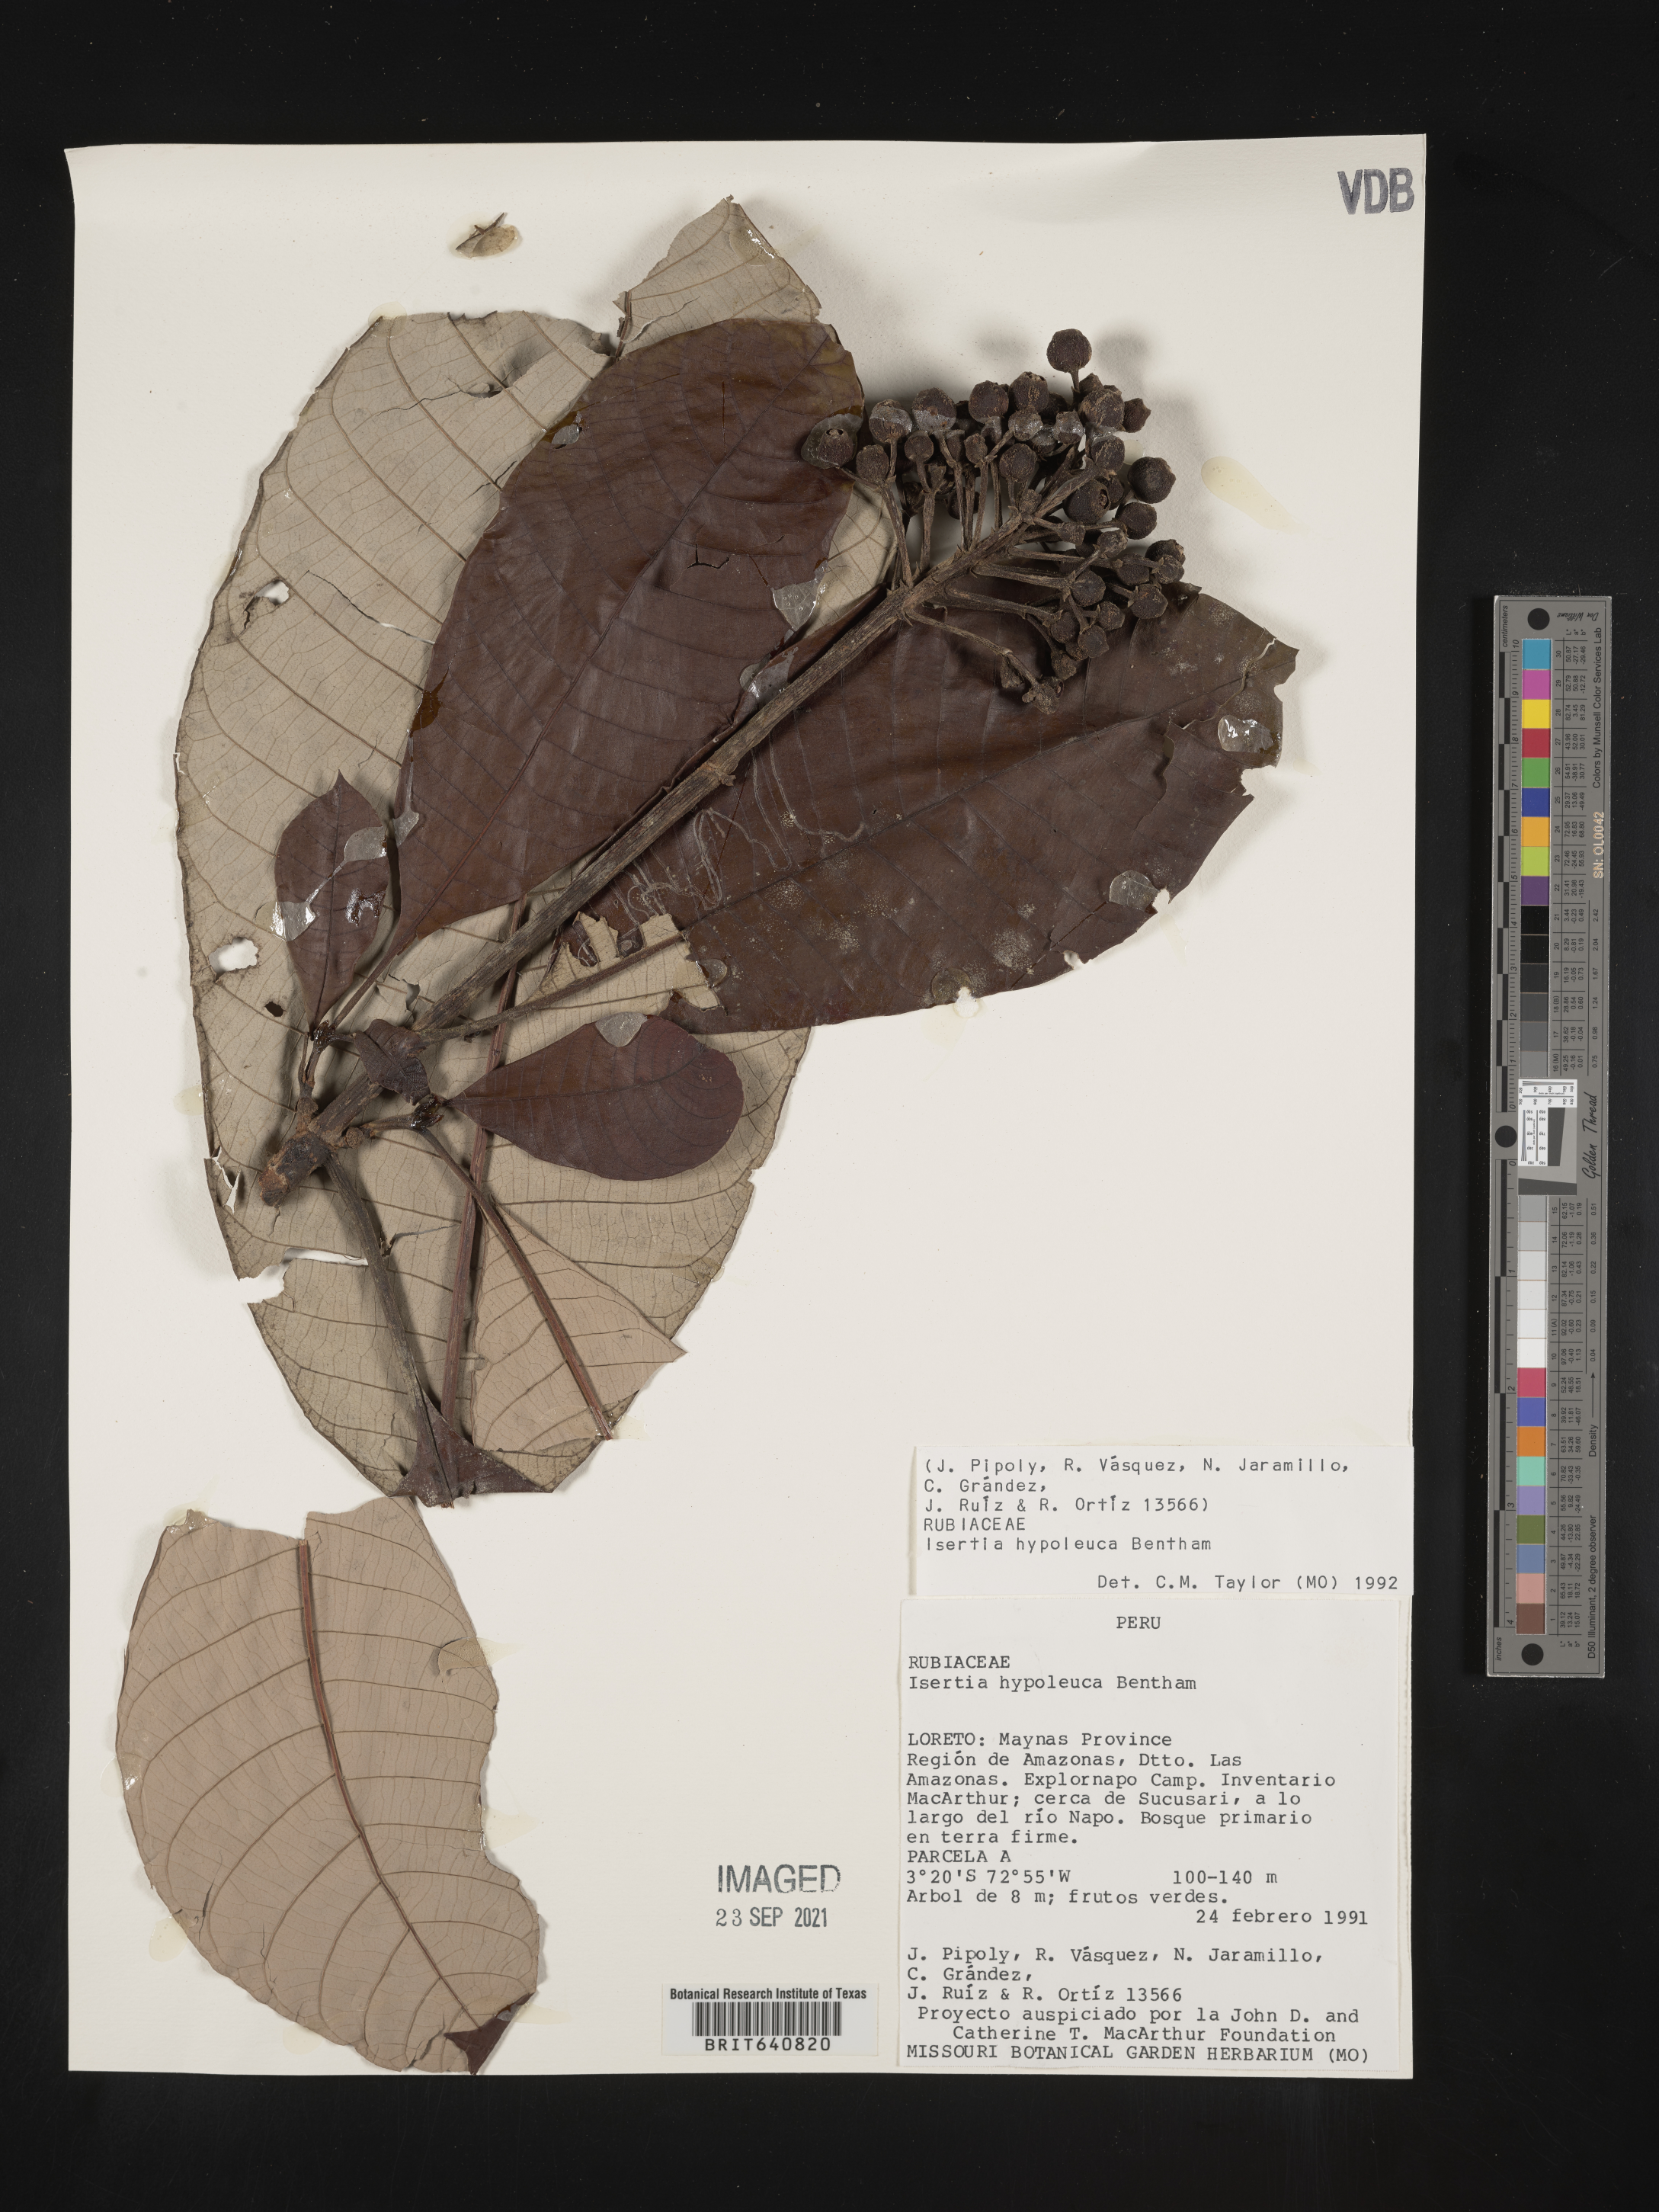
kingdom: Plantae
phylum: Tracheophyta
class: Magnoliopsida
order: Gentianales
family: Rubiaceae
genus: Isertia
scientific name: Isertia
